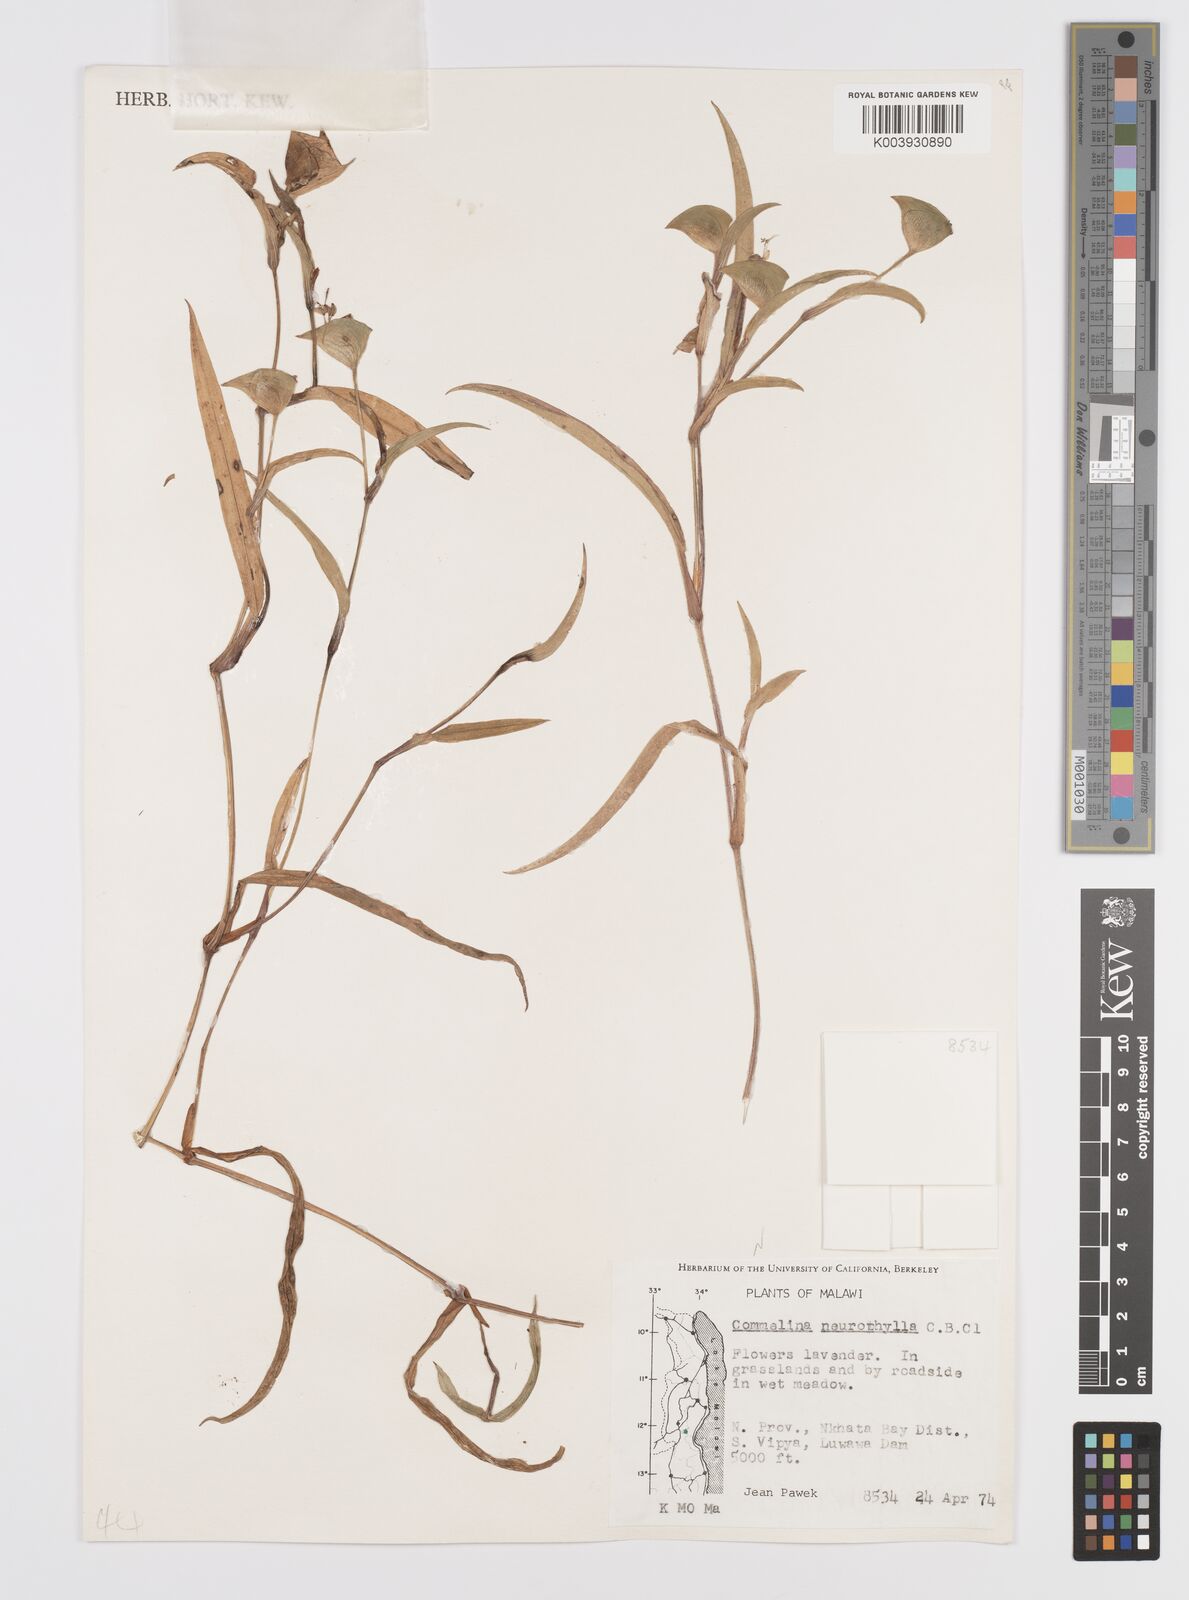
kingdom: Plantae
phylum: Tracheophyta
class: Liliopsida
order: Commelinales
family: Commelinaceae
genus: Commelina
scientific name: Commelina neurophylla
